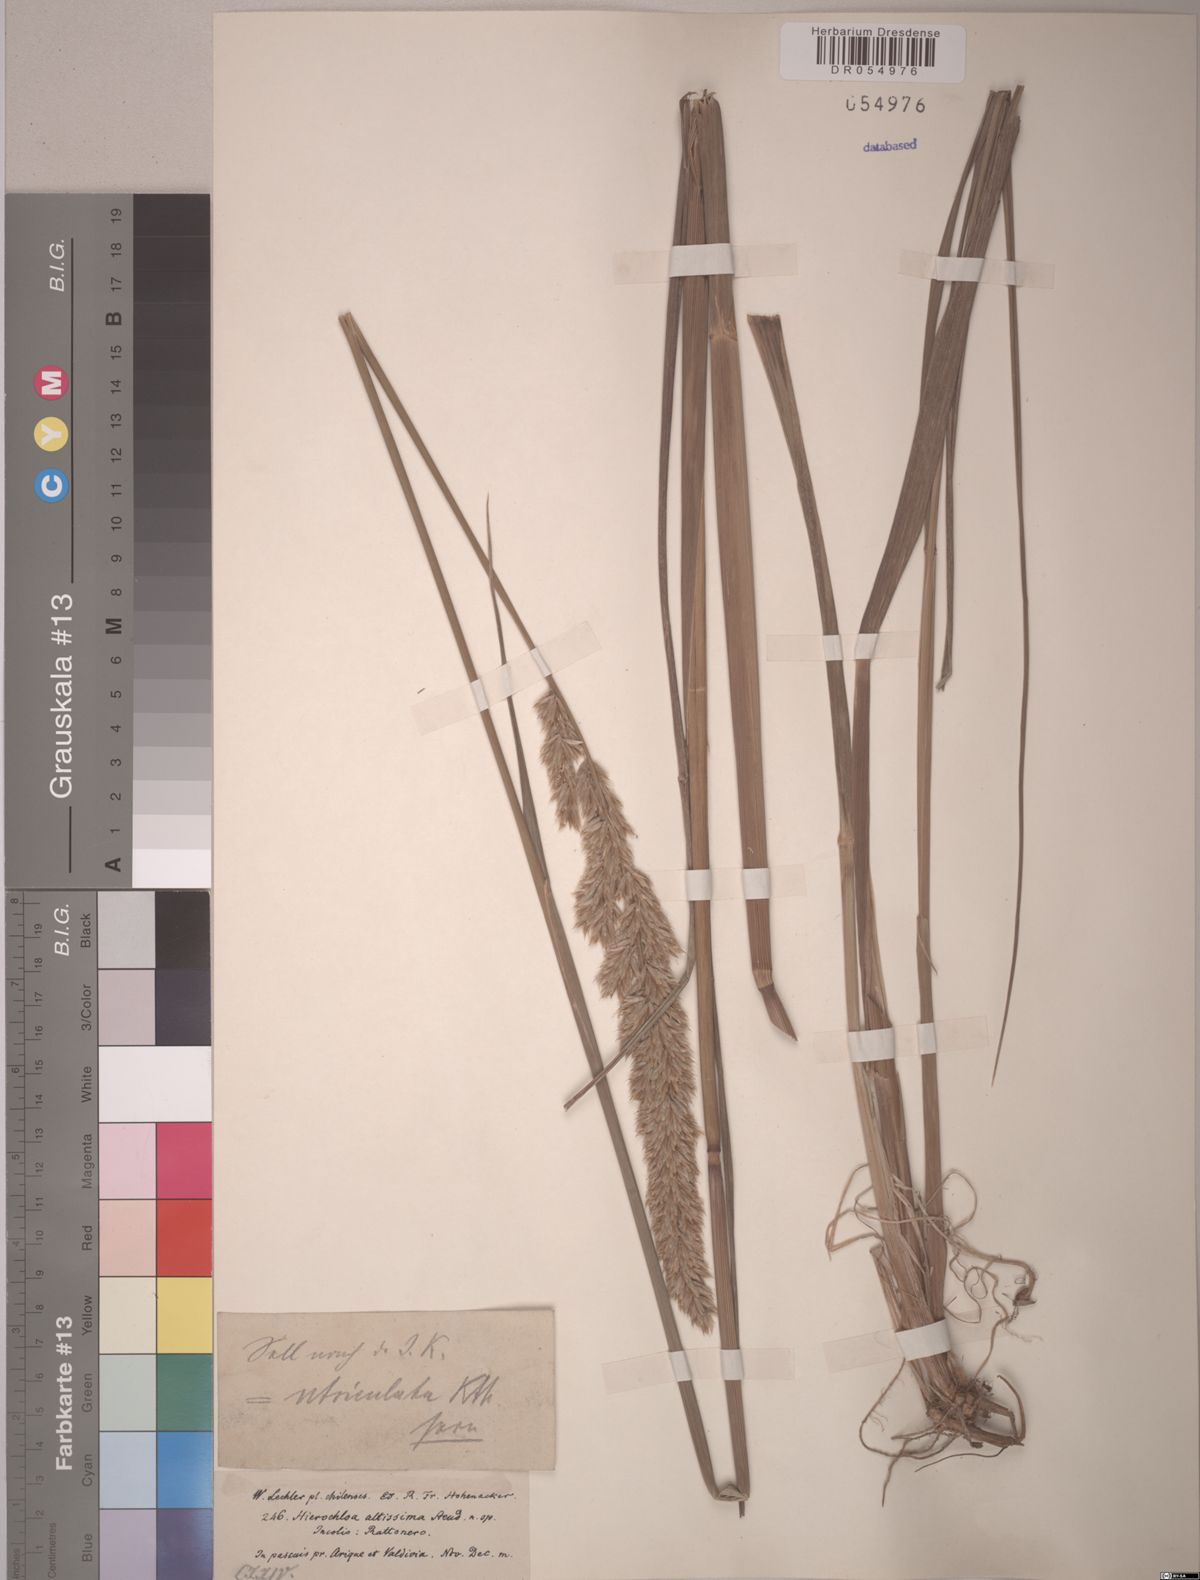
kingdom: Plantae
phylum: Tracheophyta
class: Liliopsida
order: Poales
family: Poaceae
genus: Anthoxanthum
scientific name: Anthoxanthum utriculatum
